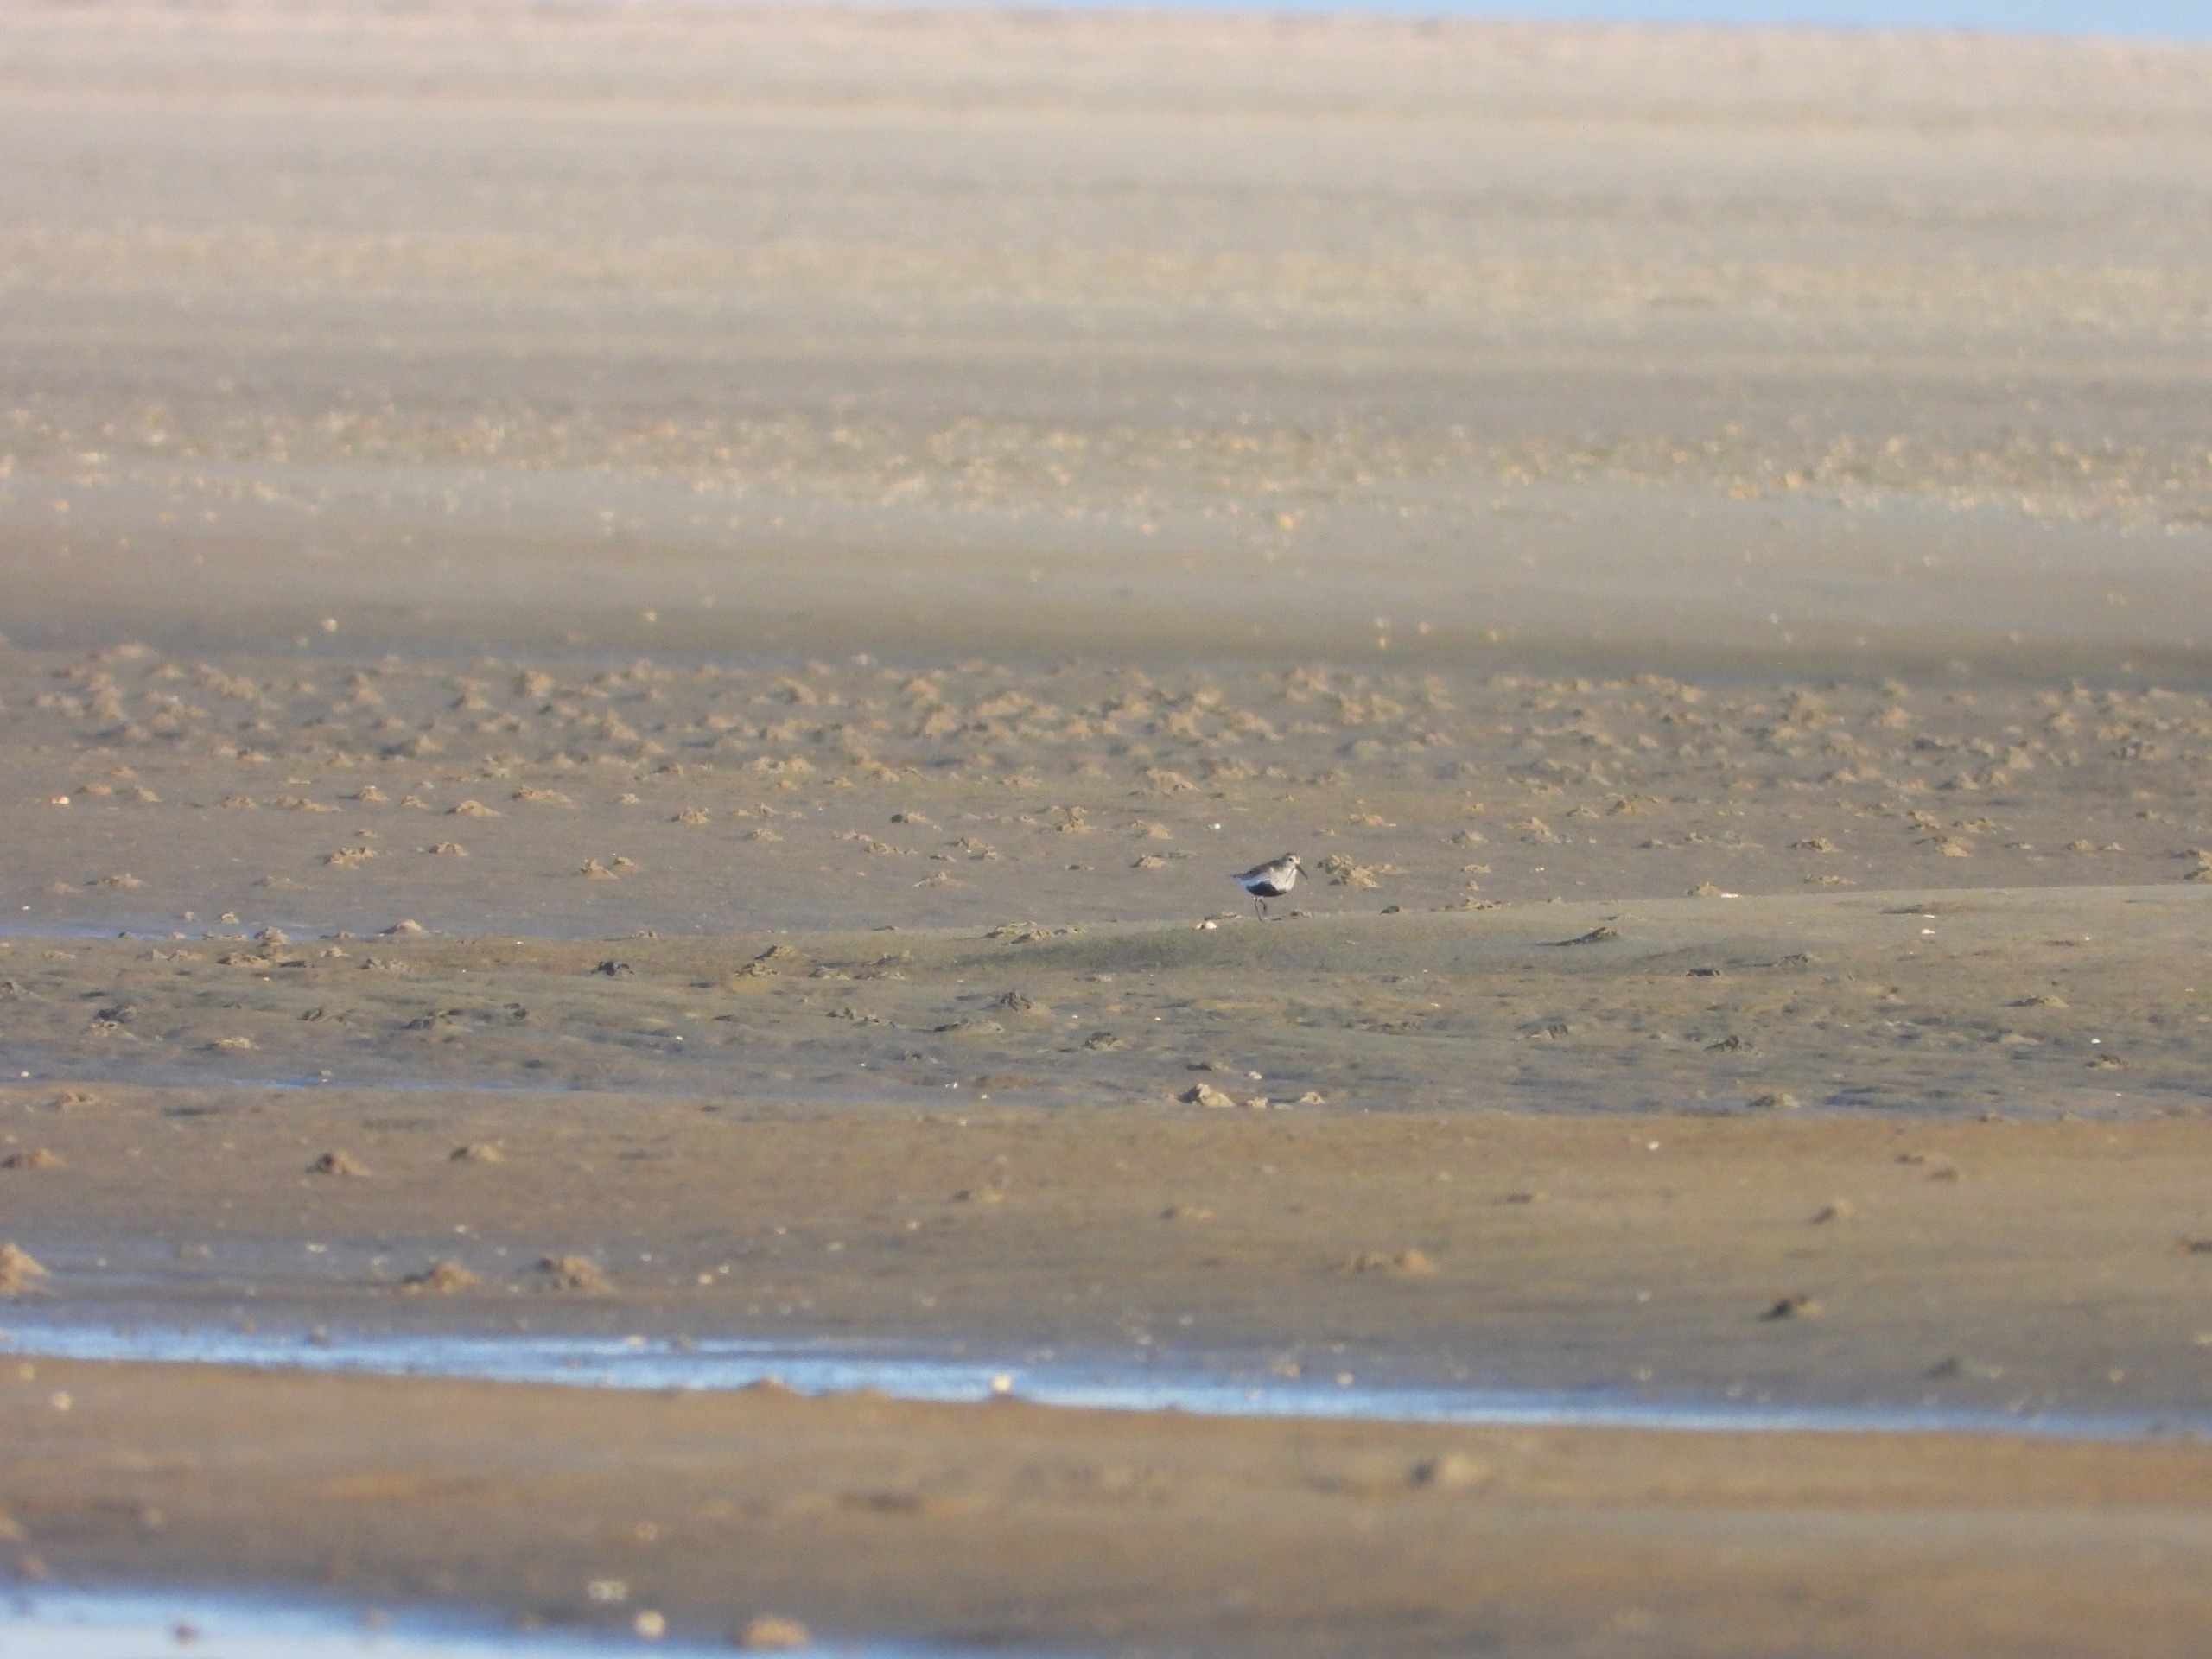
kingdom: Animalia
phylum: Chordata
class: Aves
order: Charadriiformes
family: Scolopacidae
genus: Calidris
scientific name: Calidris alpina
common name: Almindelig ryle
